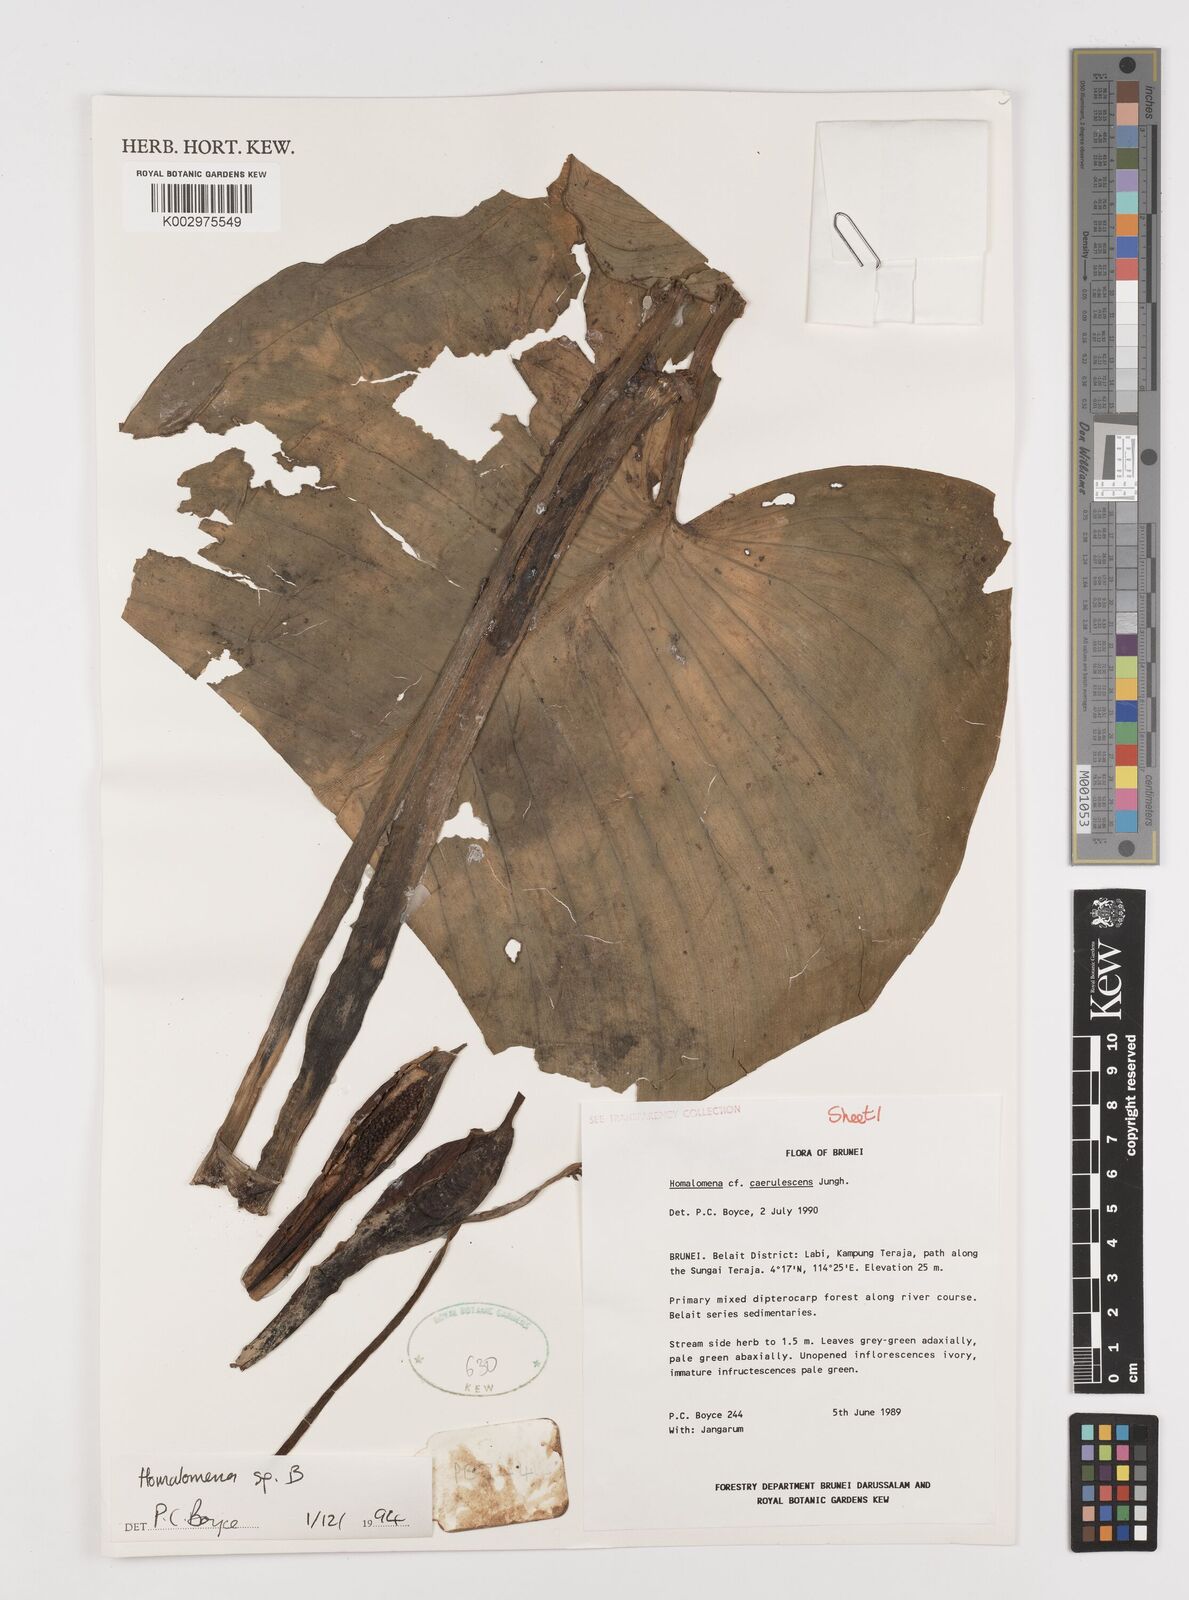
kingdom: Plantae
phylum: Tracheophyta
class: Liliopsida
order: Alismatales
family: Araceae
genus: Homalomena
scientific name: Homalomena
